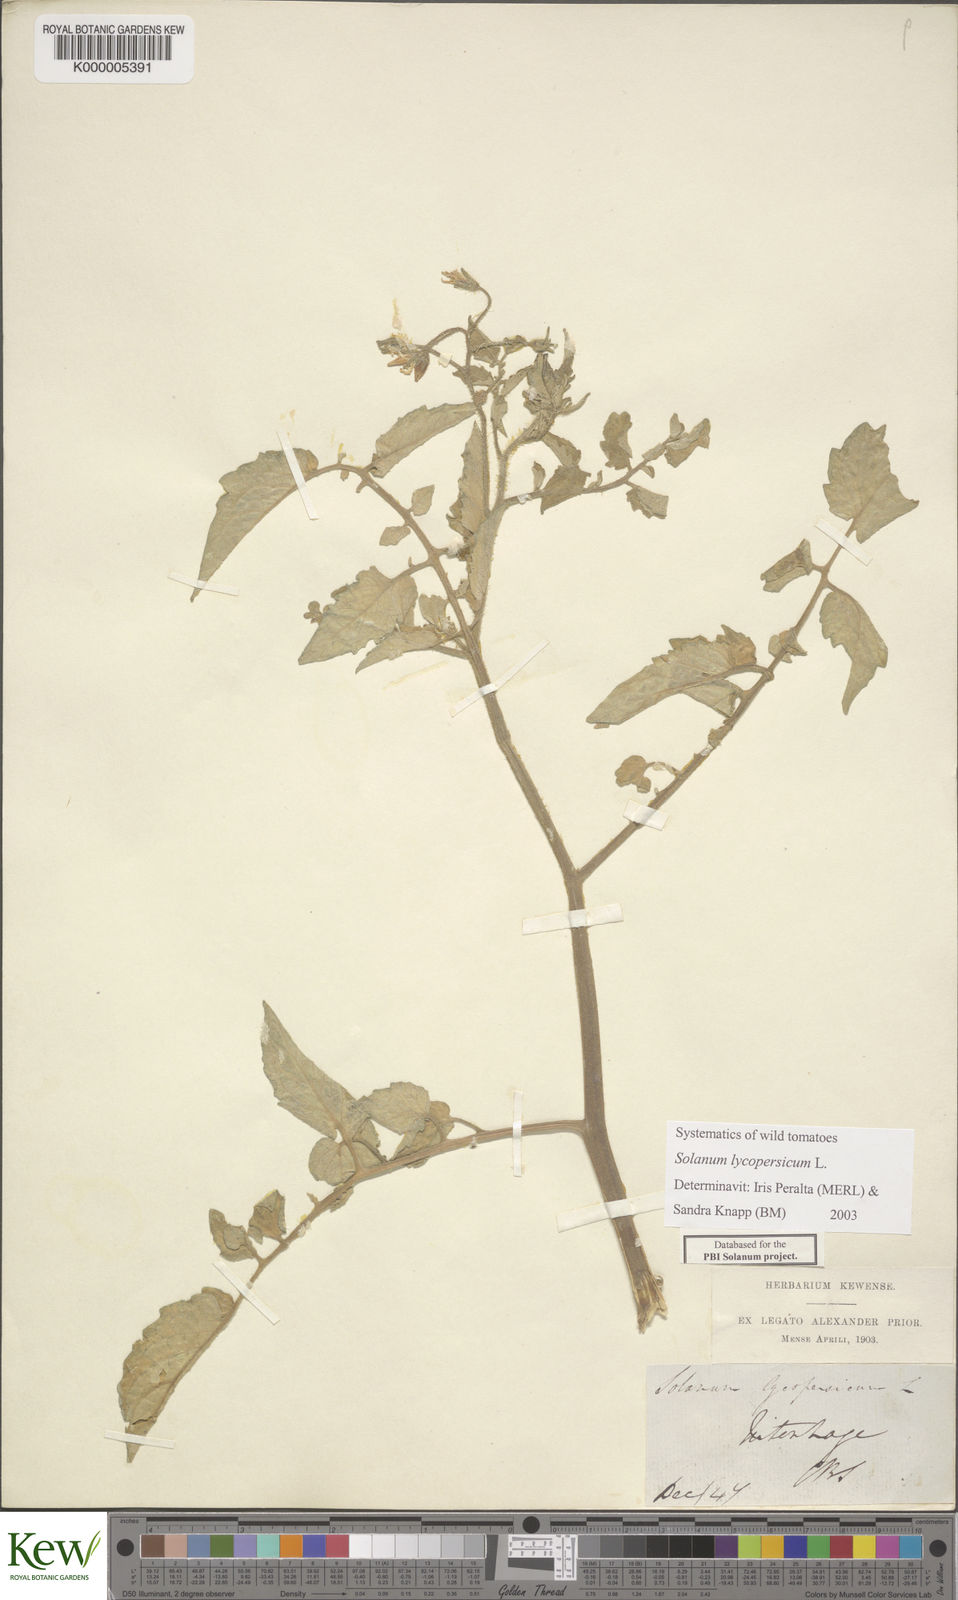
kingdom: Plantae
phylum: Tracheophyta
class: Magnoliopsida
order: Solanales
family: Solanaceae
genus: Solanum
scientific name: Solanum lycopersicum
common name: Garden tomato
